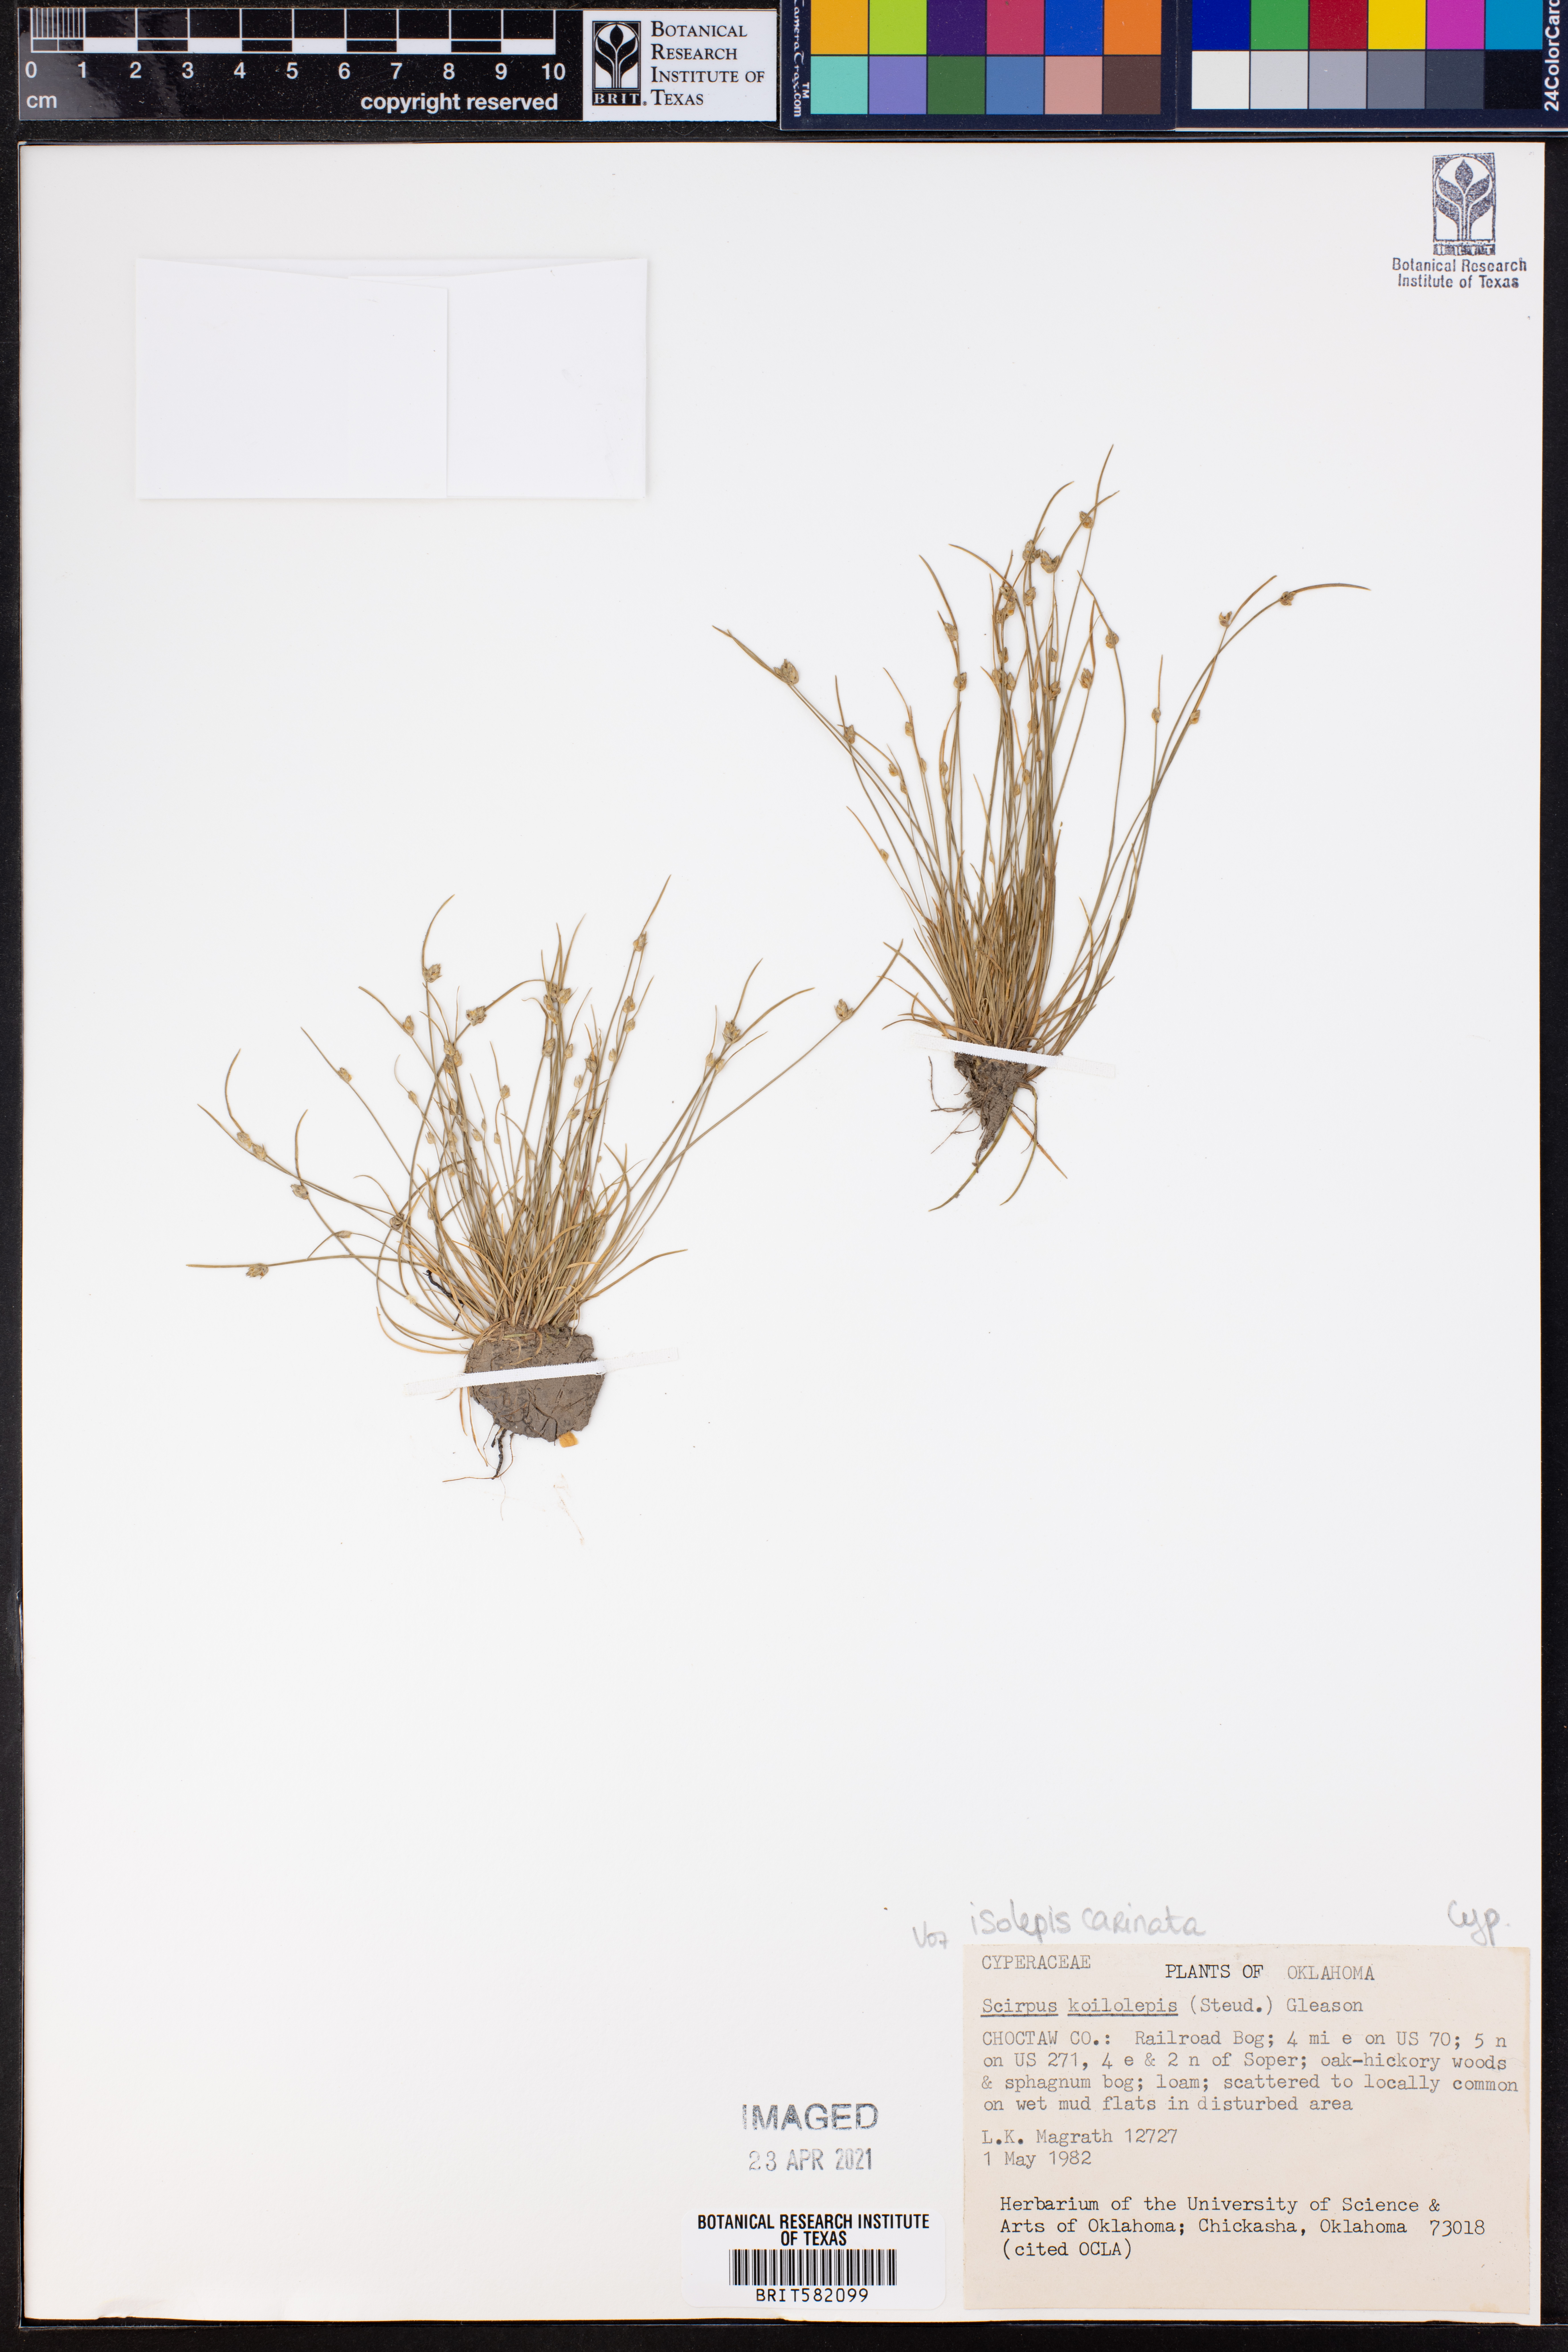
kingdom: Plantae
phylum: Tracheophyta
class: Liliopsida
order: Poales
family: Cyperaceae
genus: Isolepis
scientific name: Isolepis carinata
